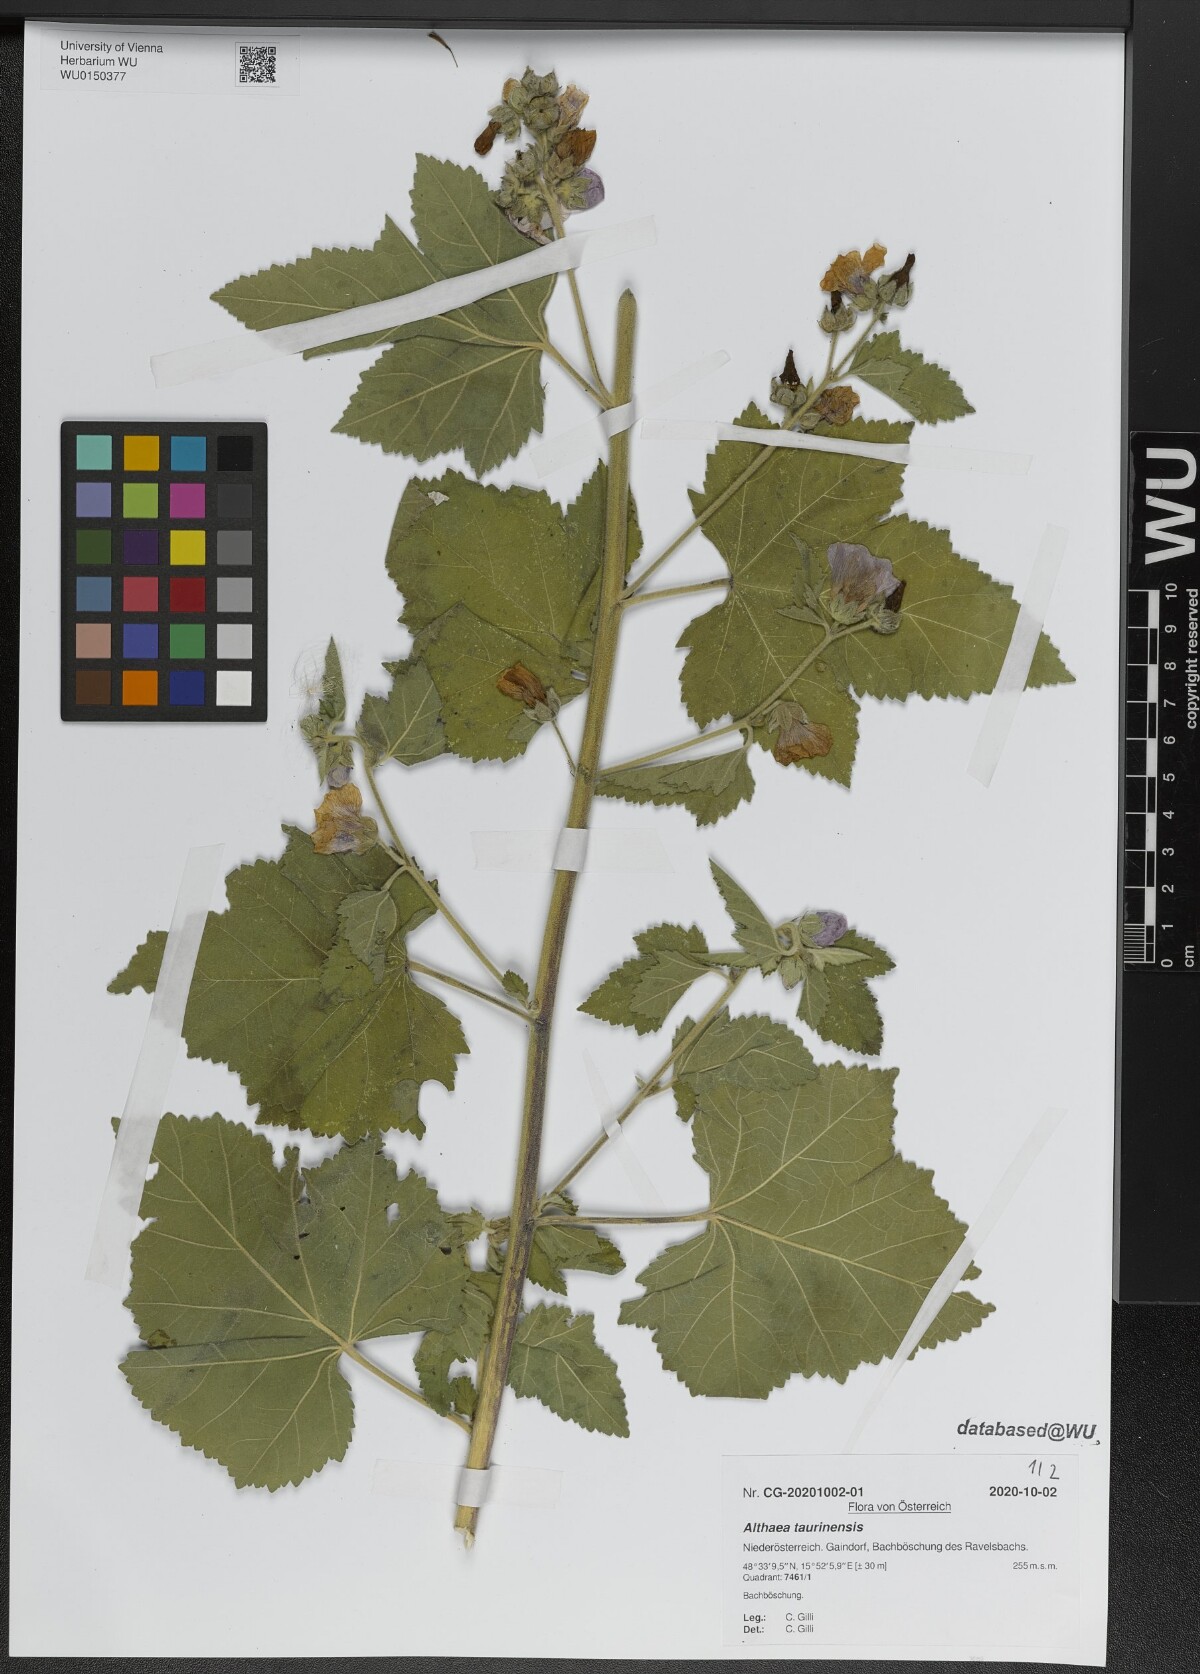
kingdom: Plantae
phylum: Tracheophyta
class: Magnoliopsida
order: Malvales
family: Malvaceae
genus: Althaea
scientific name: Althaea taurinensis
